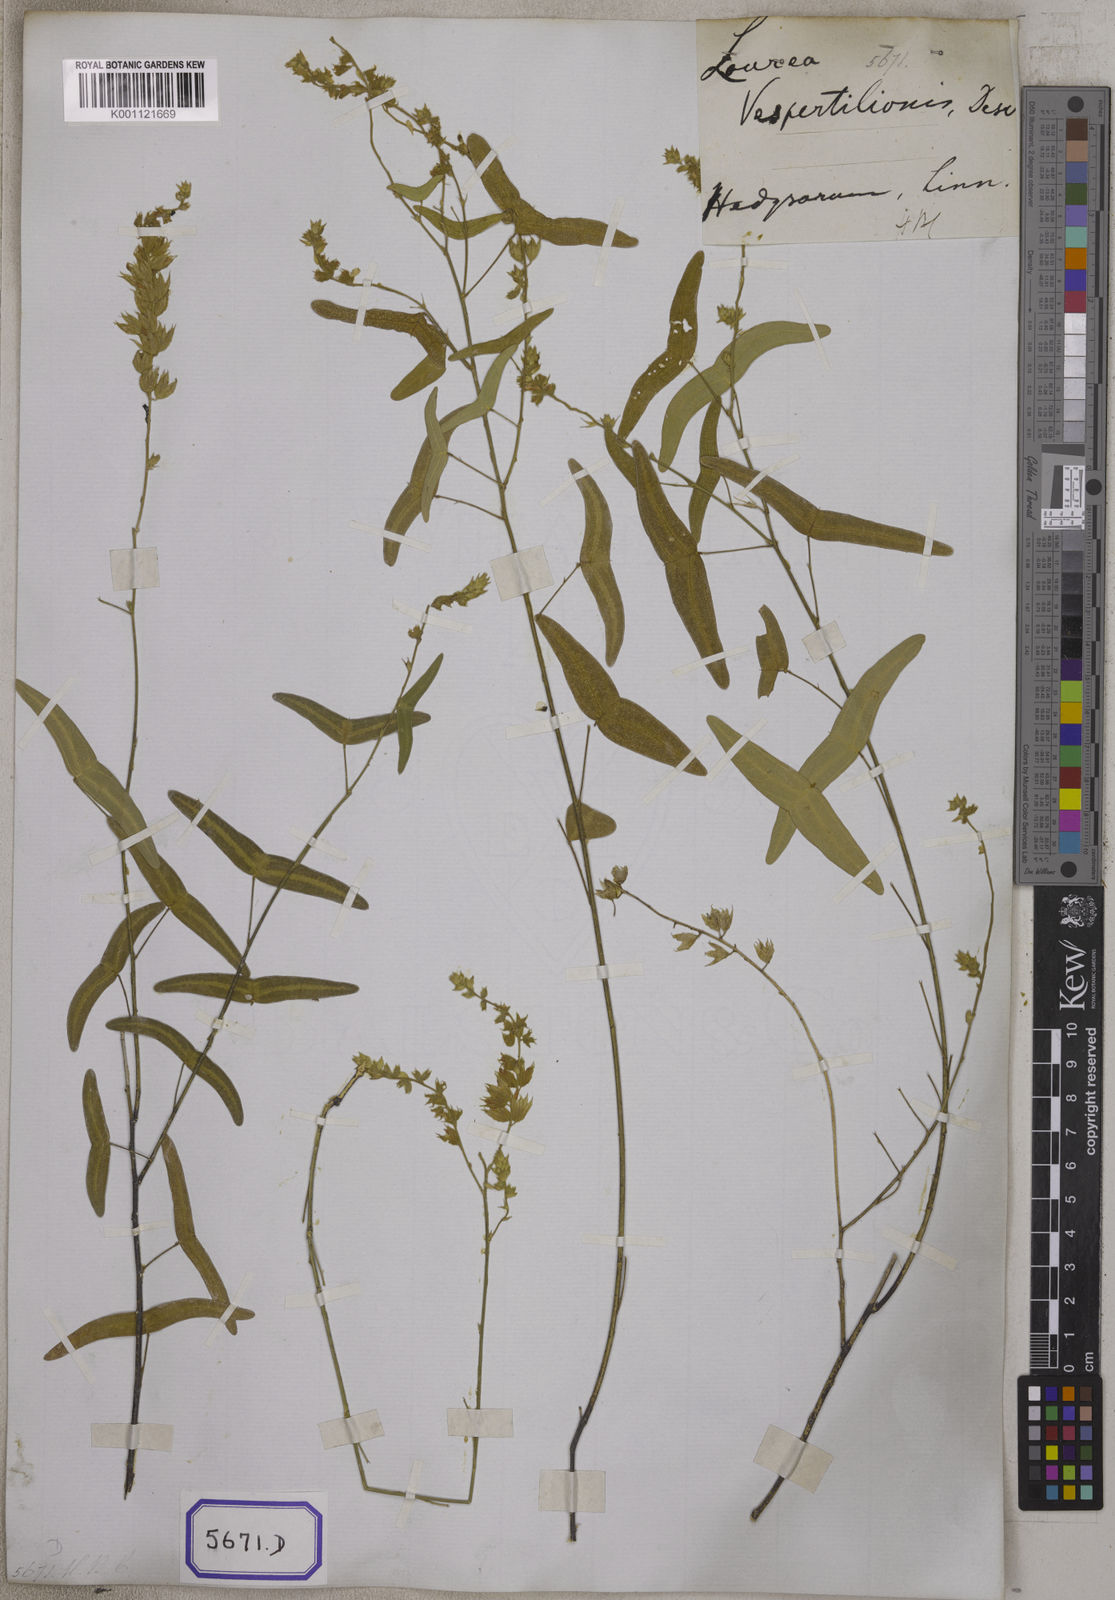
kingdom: Plantae
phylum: Tracheophyta
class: Magnoliopsida
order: Fabales
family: Fabaceae
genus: Christia
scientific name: Christia vespertilionis
